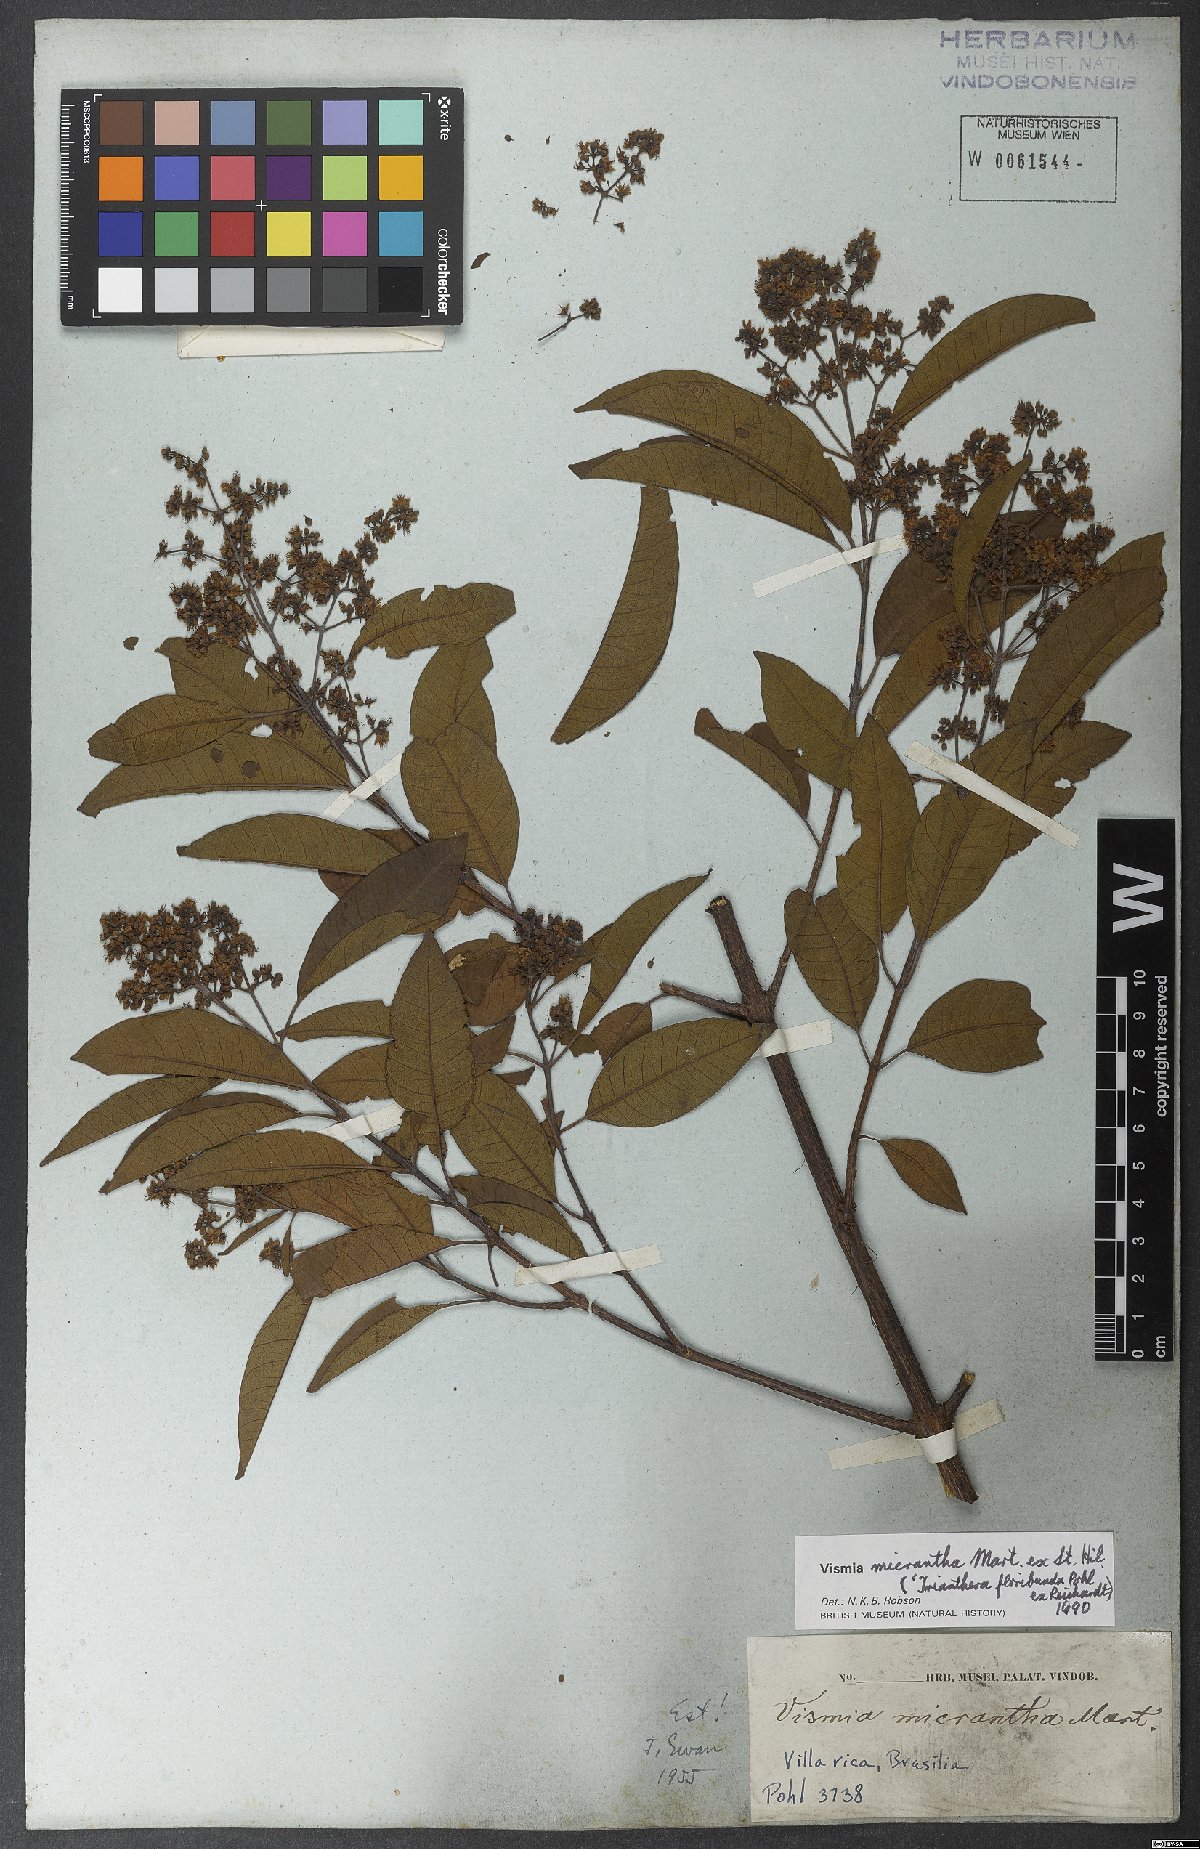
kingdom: Plantae
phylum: Tracheophyta
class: Magnoliopsida
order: Malpighiales
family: Hypericaceae
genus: Vismia
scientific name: Vismia micrantha
